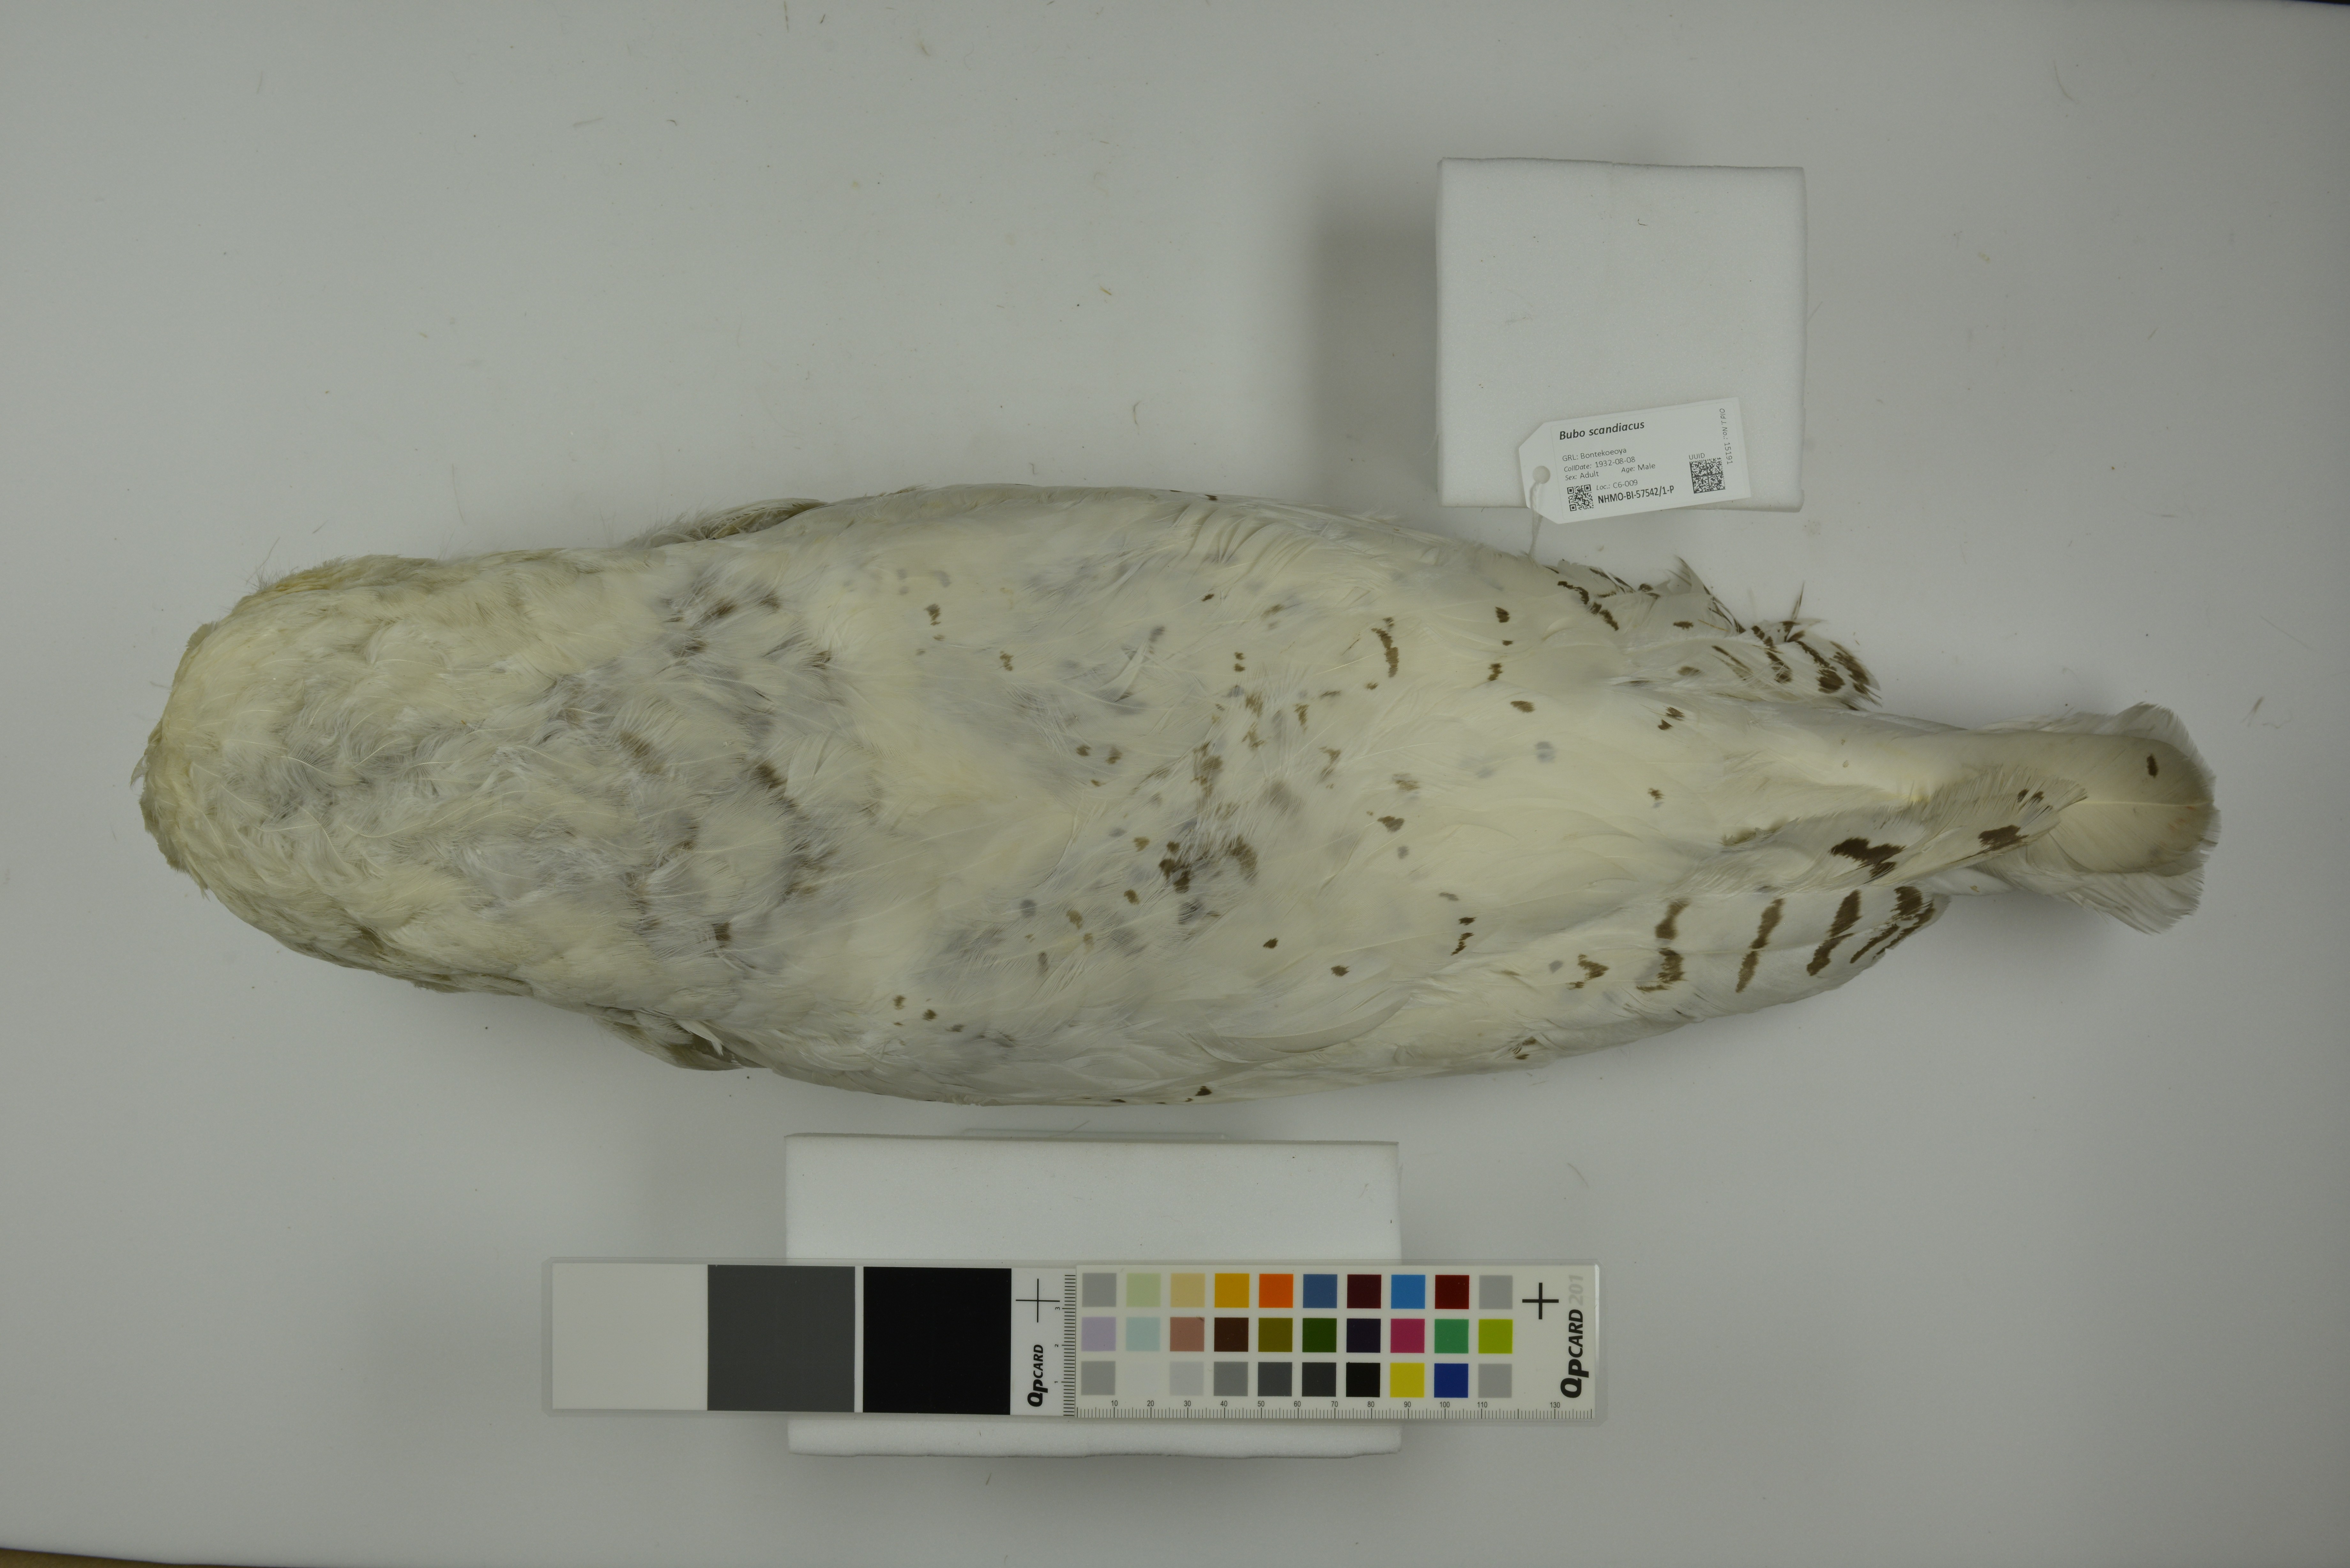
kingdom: Animalia
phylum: Chordata
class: Aves
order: Strigiformes
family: Strigidae
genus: Bubo
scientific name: Bubo scandiacus
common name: Snowy owl
